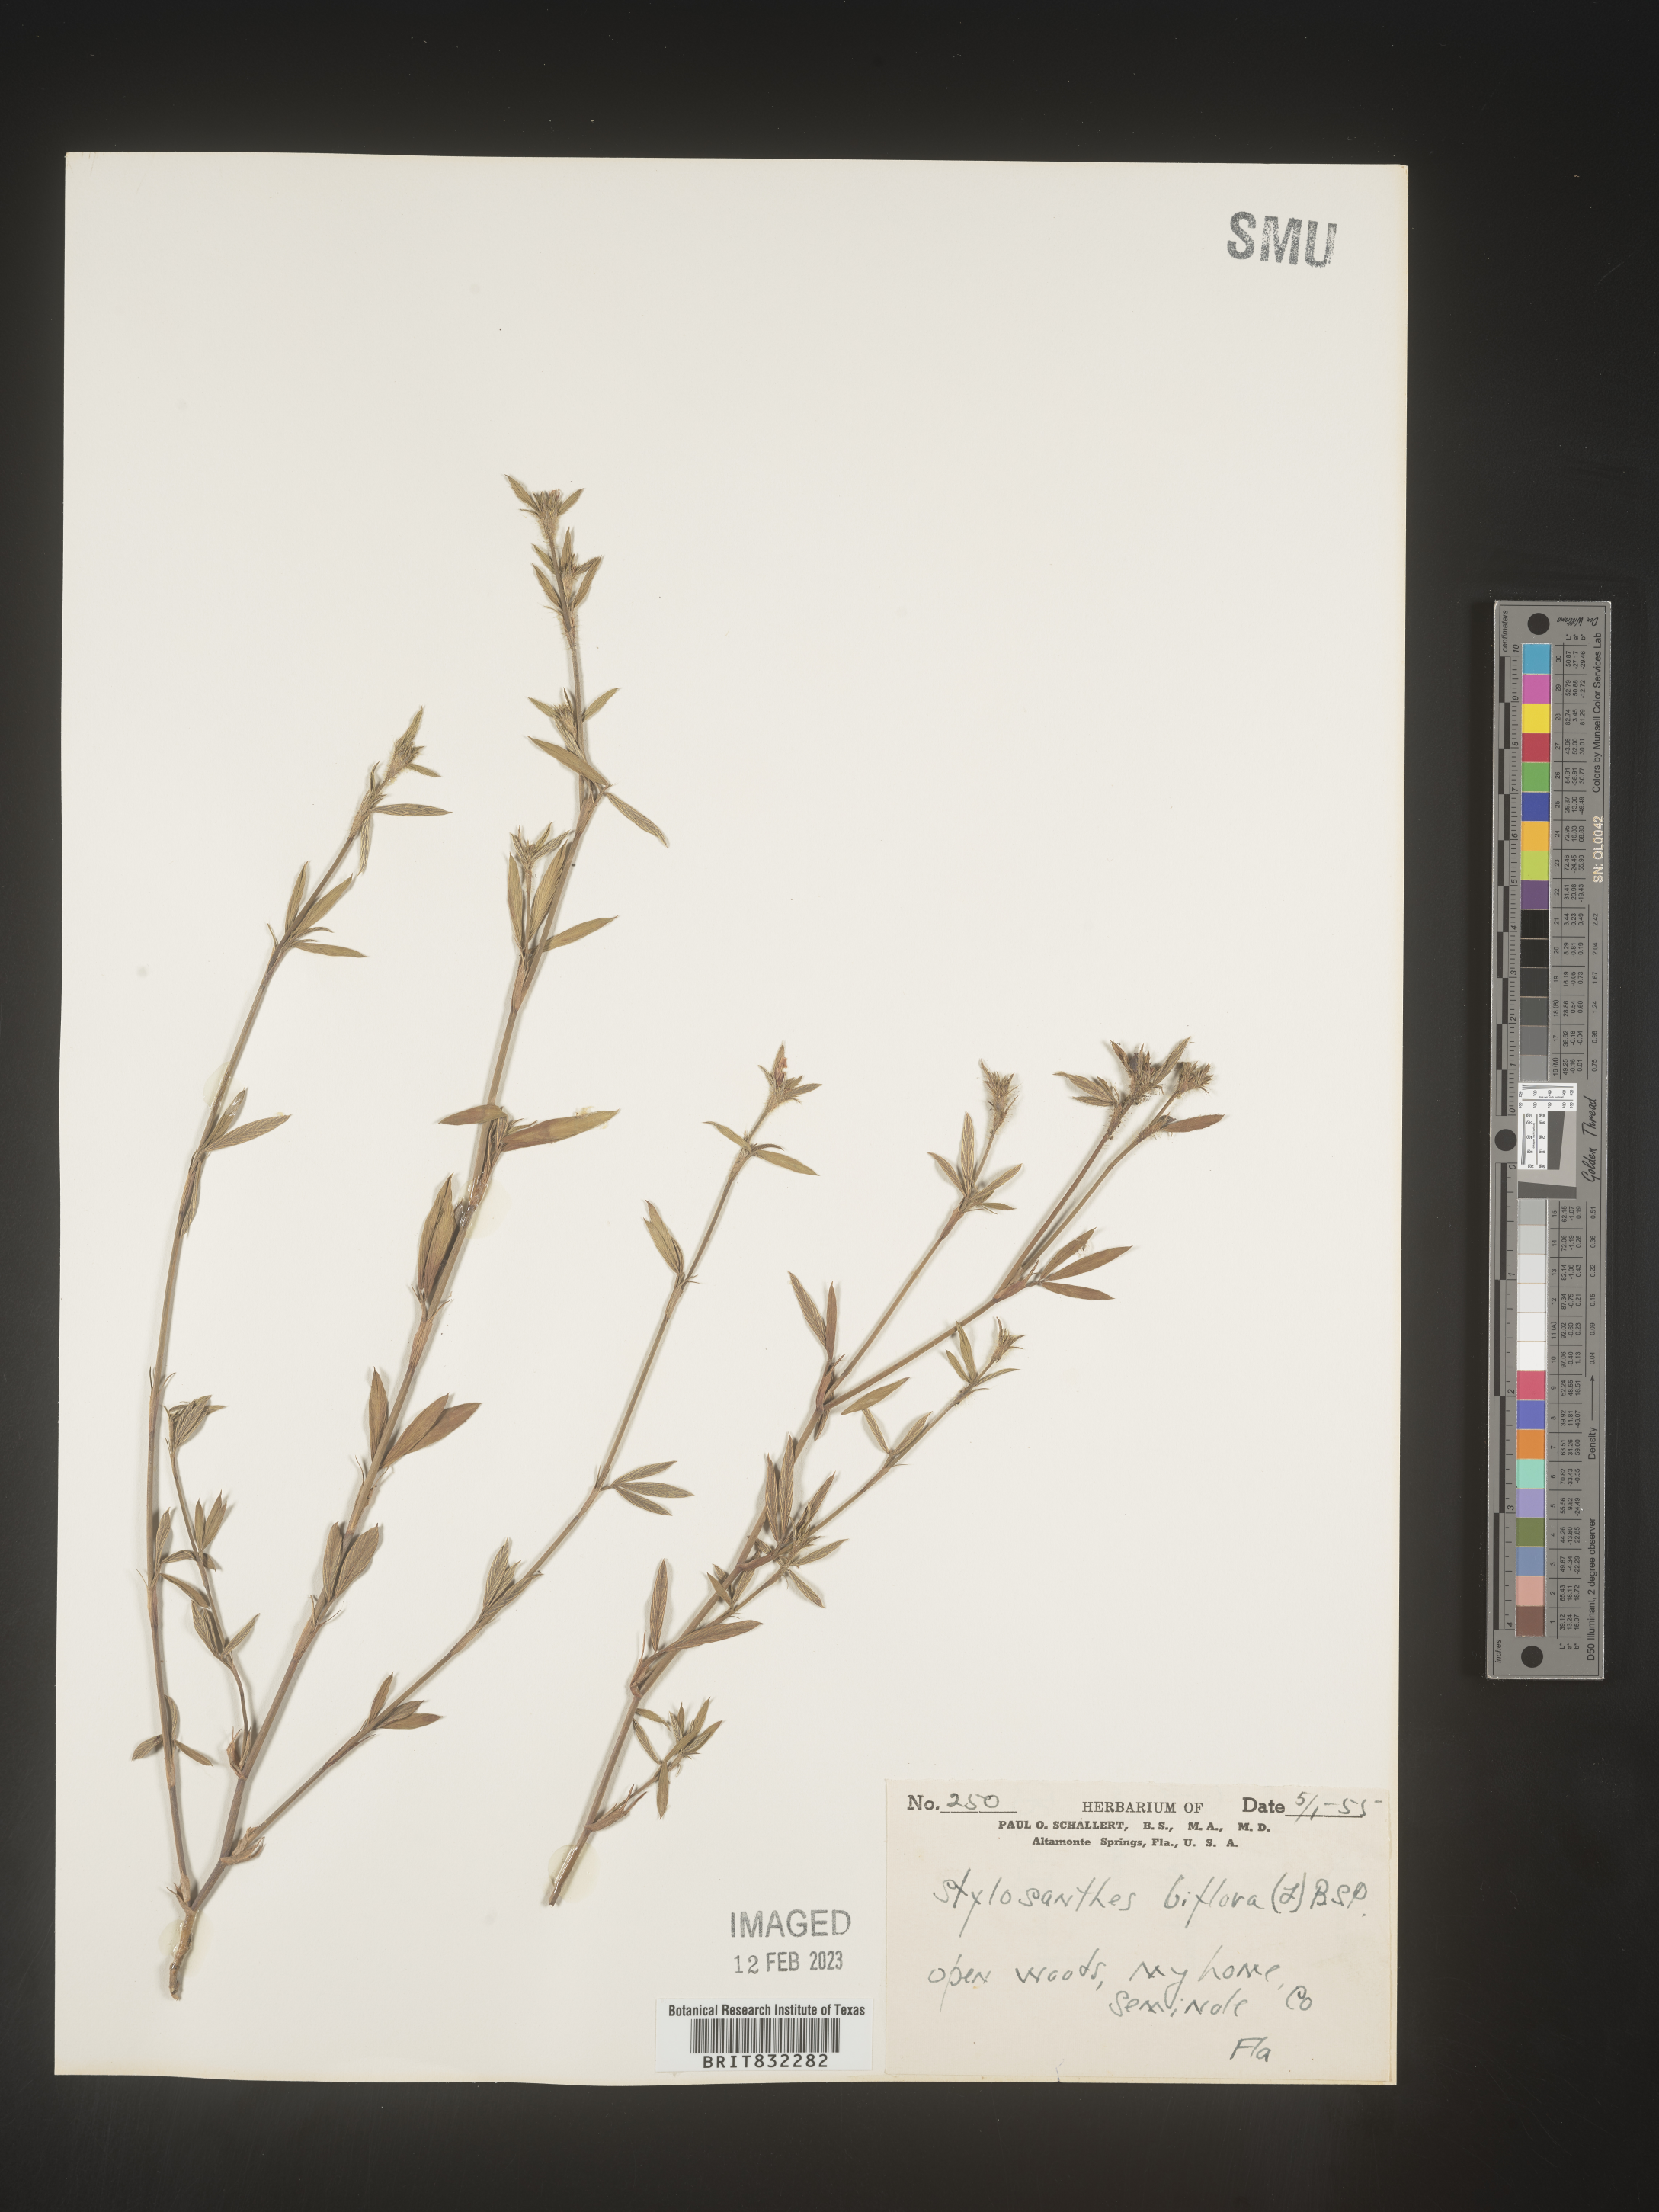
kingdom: Plantae
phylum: Tracheophyta
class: Magnoliopsida
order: Fabales
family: Fabaceae
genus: Stylosanthes
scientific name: Stylosanthes biflora
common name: Two-flower pencil-flower
